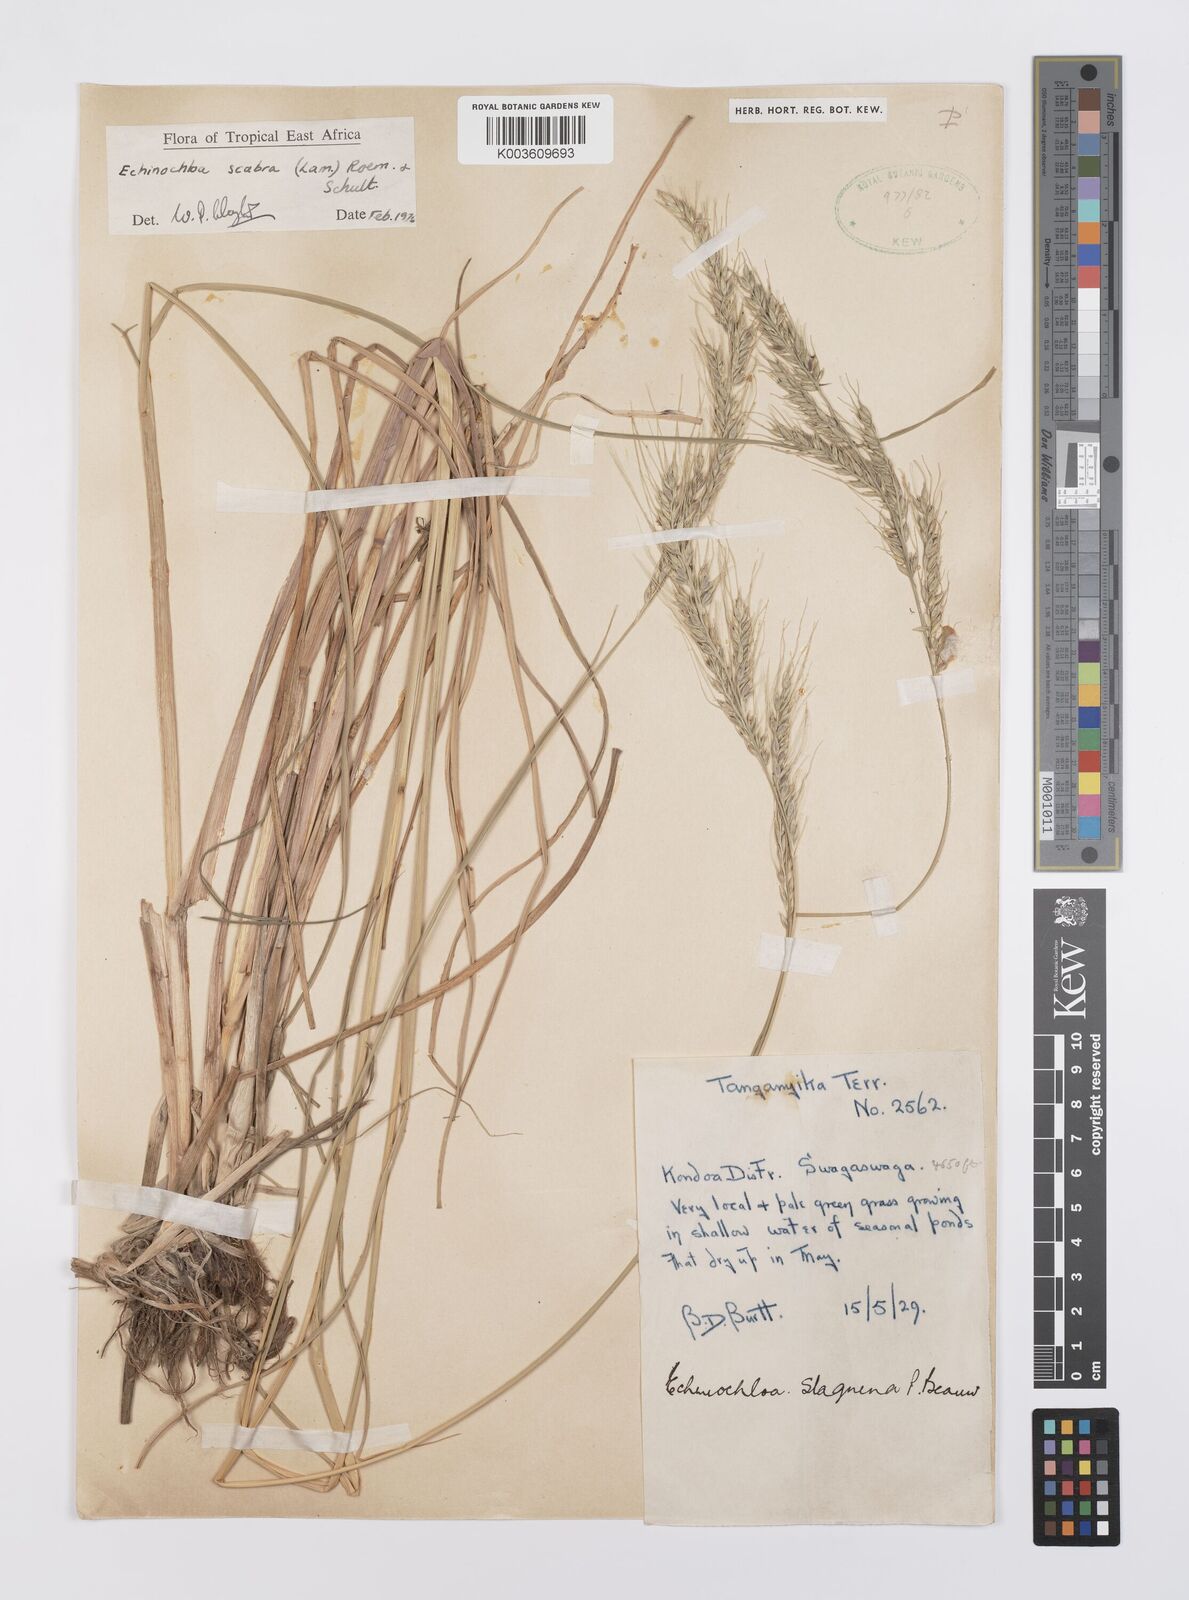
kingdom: Plantae
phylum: Tracheophyta
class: Liliopsida
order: Poales
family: Poaceae
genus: Echinochloa
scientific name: Echinochloa stagnina
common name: Burgu grass
